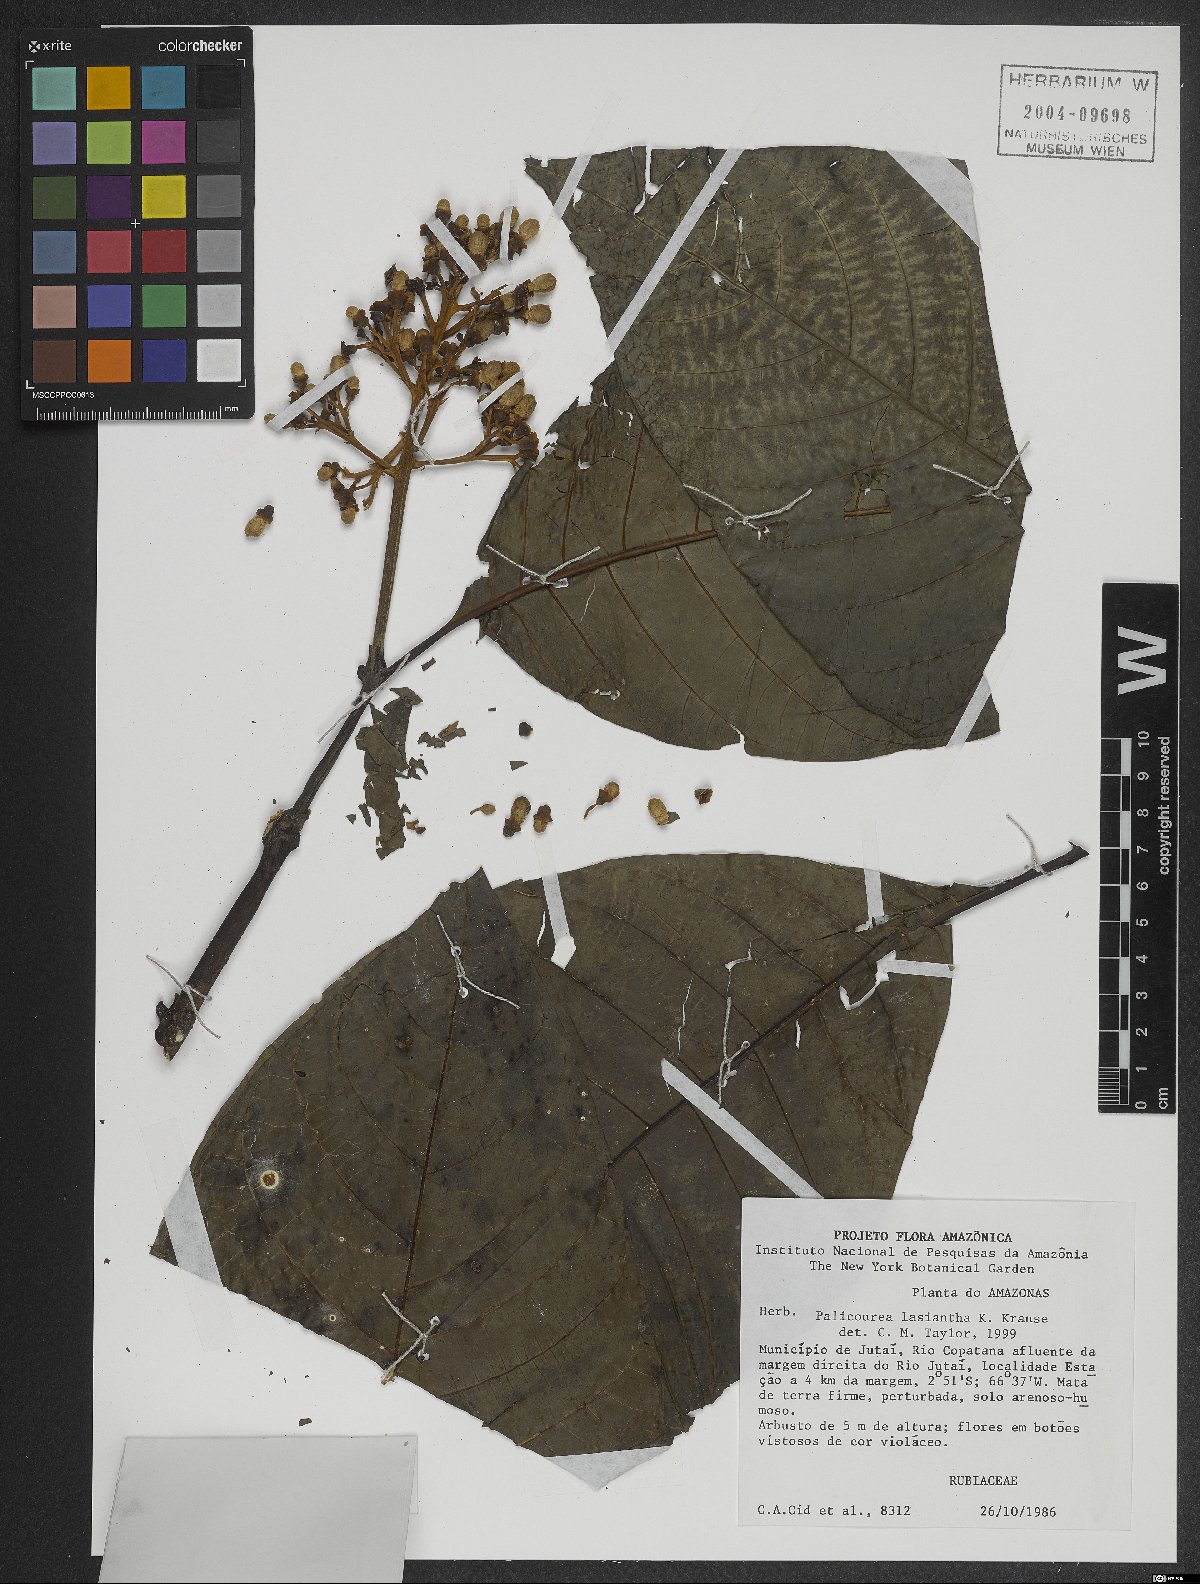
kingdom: Plantae
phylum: Tracheophyta
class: Magnoliopsida
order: Gentianales
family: Rubiaceae
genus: Palicourea
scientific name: Palicourea lasiantha
